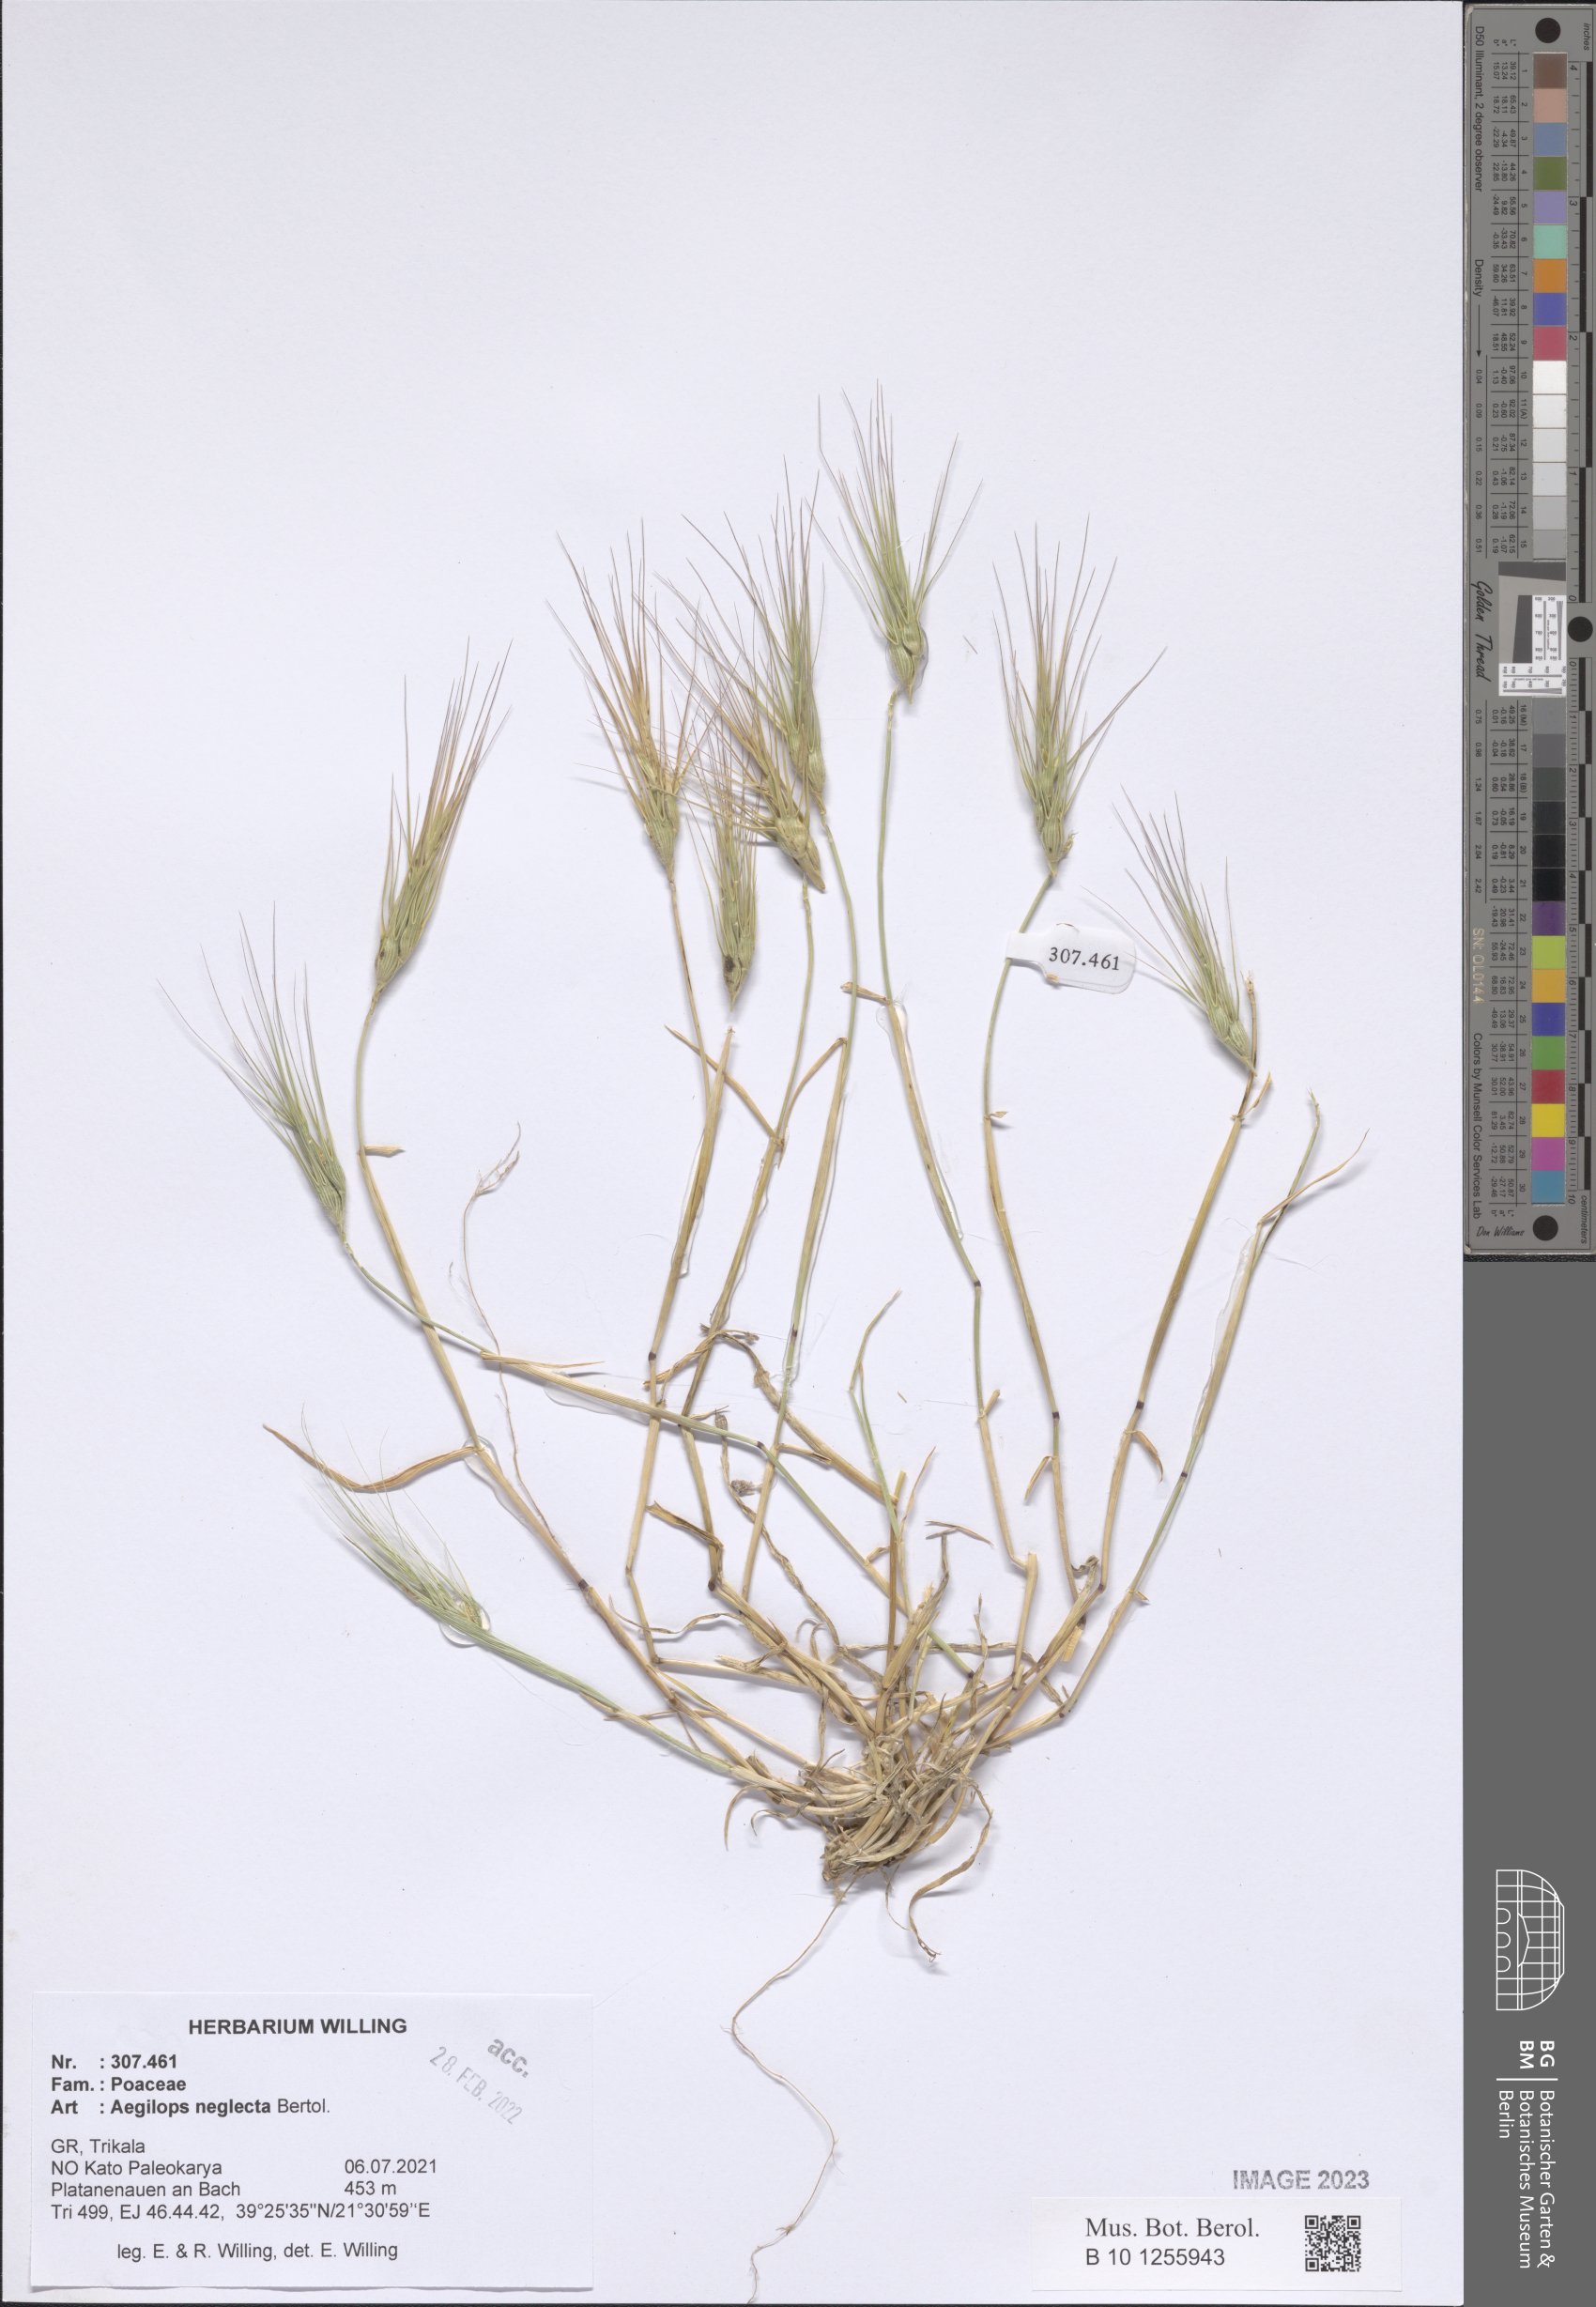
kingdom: Plantae
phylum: Tracheophyta
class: Liliopsida
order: Poales
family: Poaceae
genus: Aegilops
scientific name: Aegilops neglecta
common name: Three-awn goat grass
